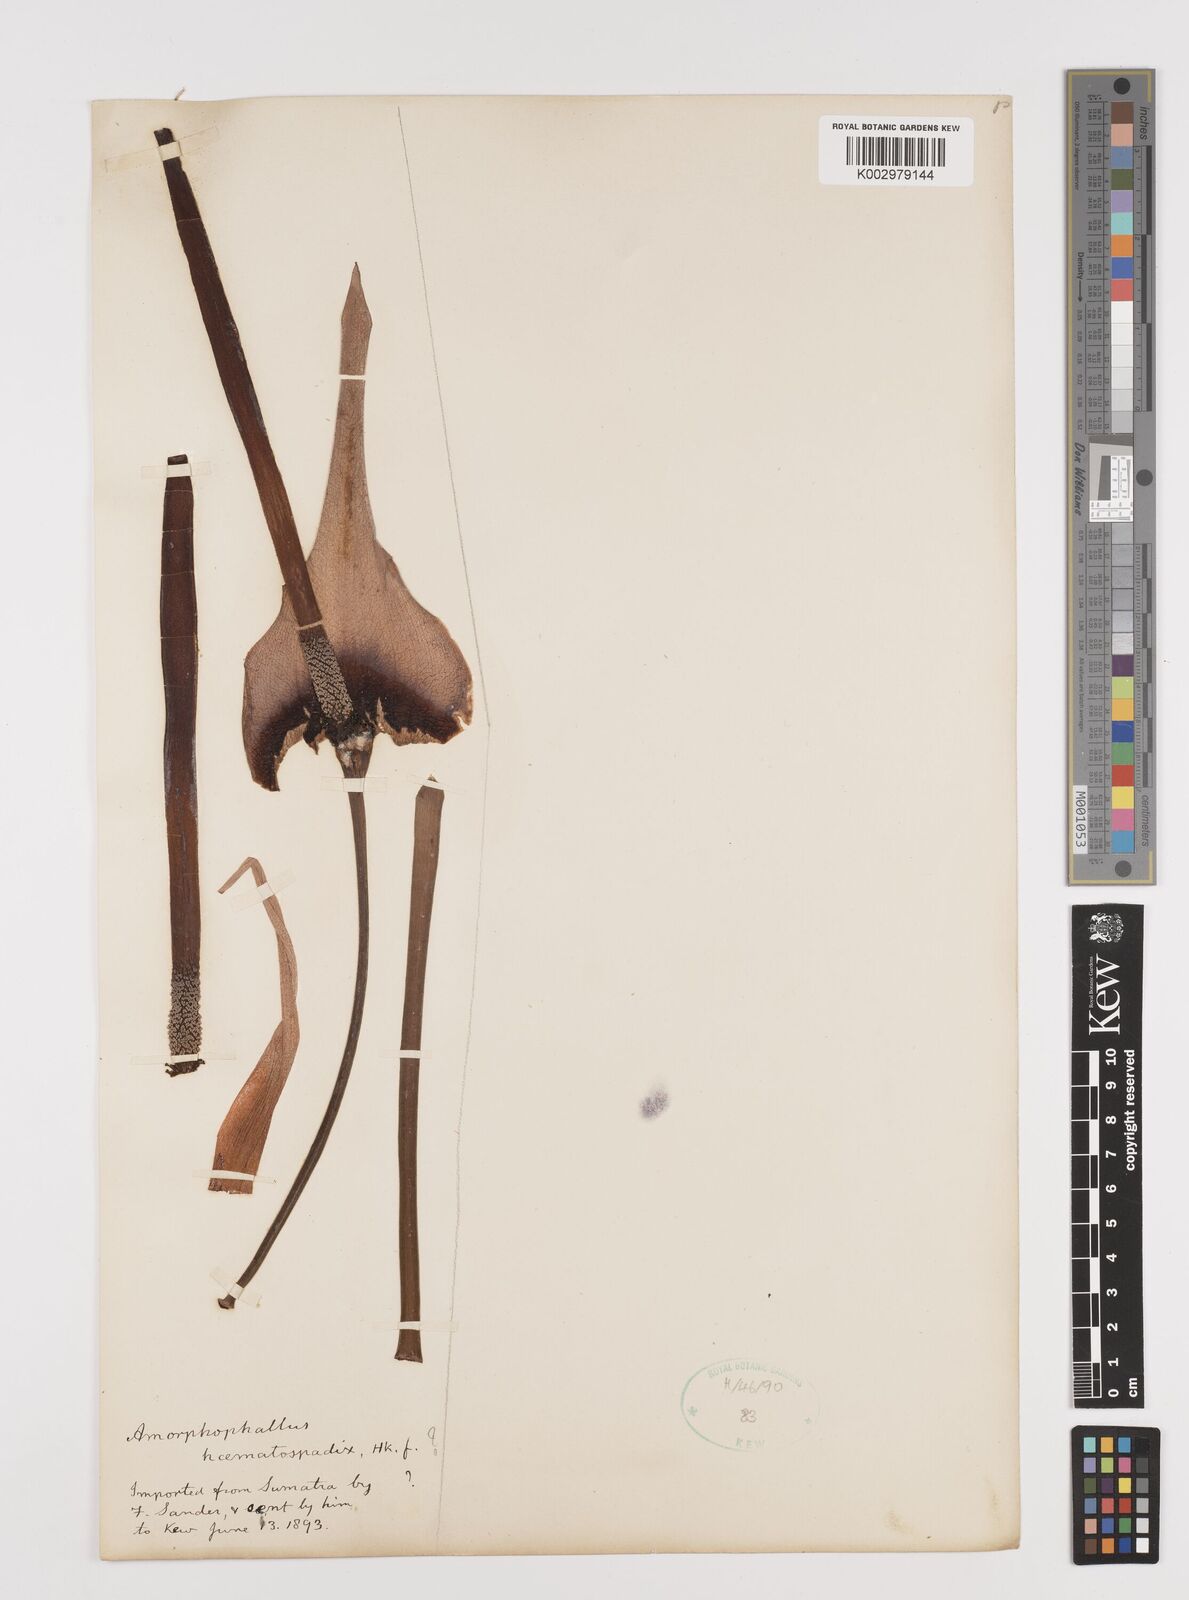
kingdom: Plantae
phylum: Tracheophyta
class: Liliopsida
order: Alismatales
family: Araceae
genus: Amorphophallus
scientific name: Amorphophallus haematospadix
